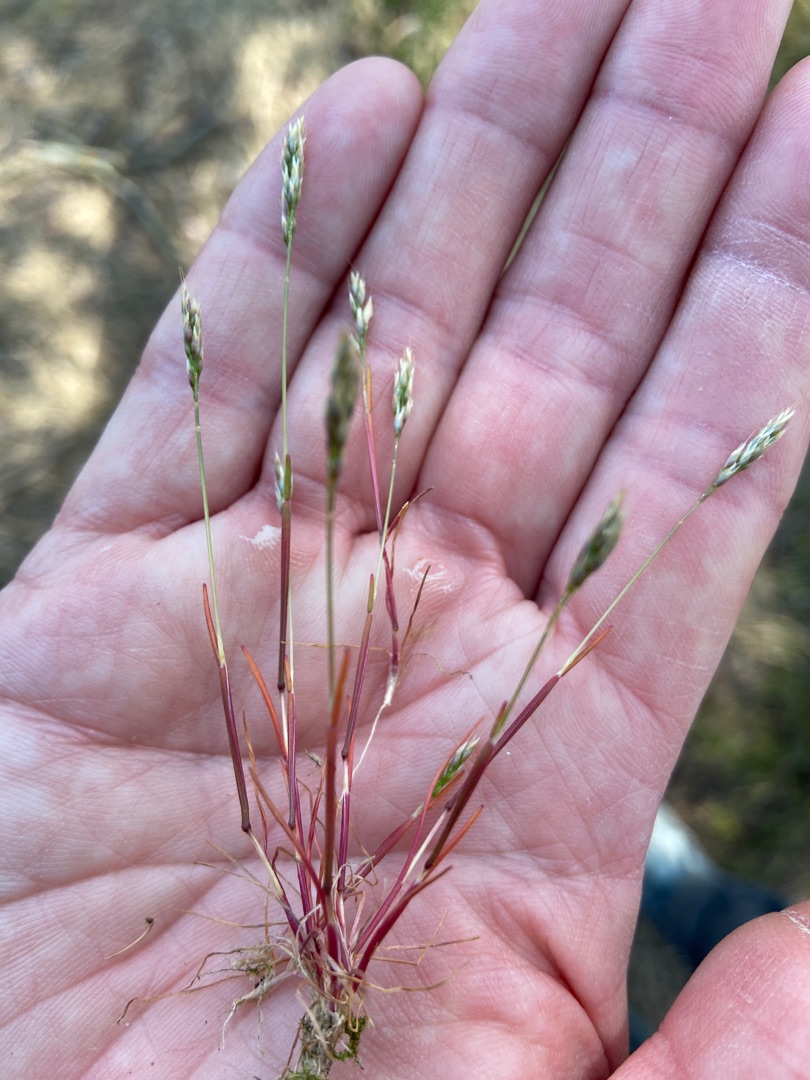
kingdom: Plantae
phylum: Tracheophyta
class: Liliopsida
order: Poales
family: Poaceae
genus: Aira
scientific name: Aira praecox
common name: Tidlig dværgbunke
